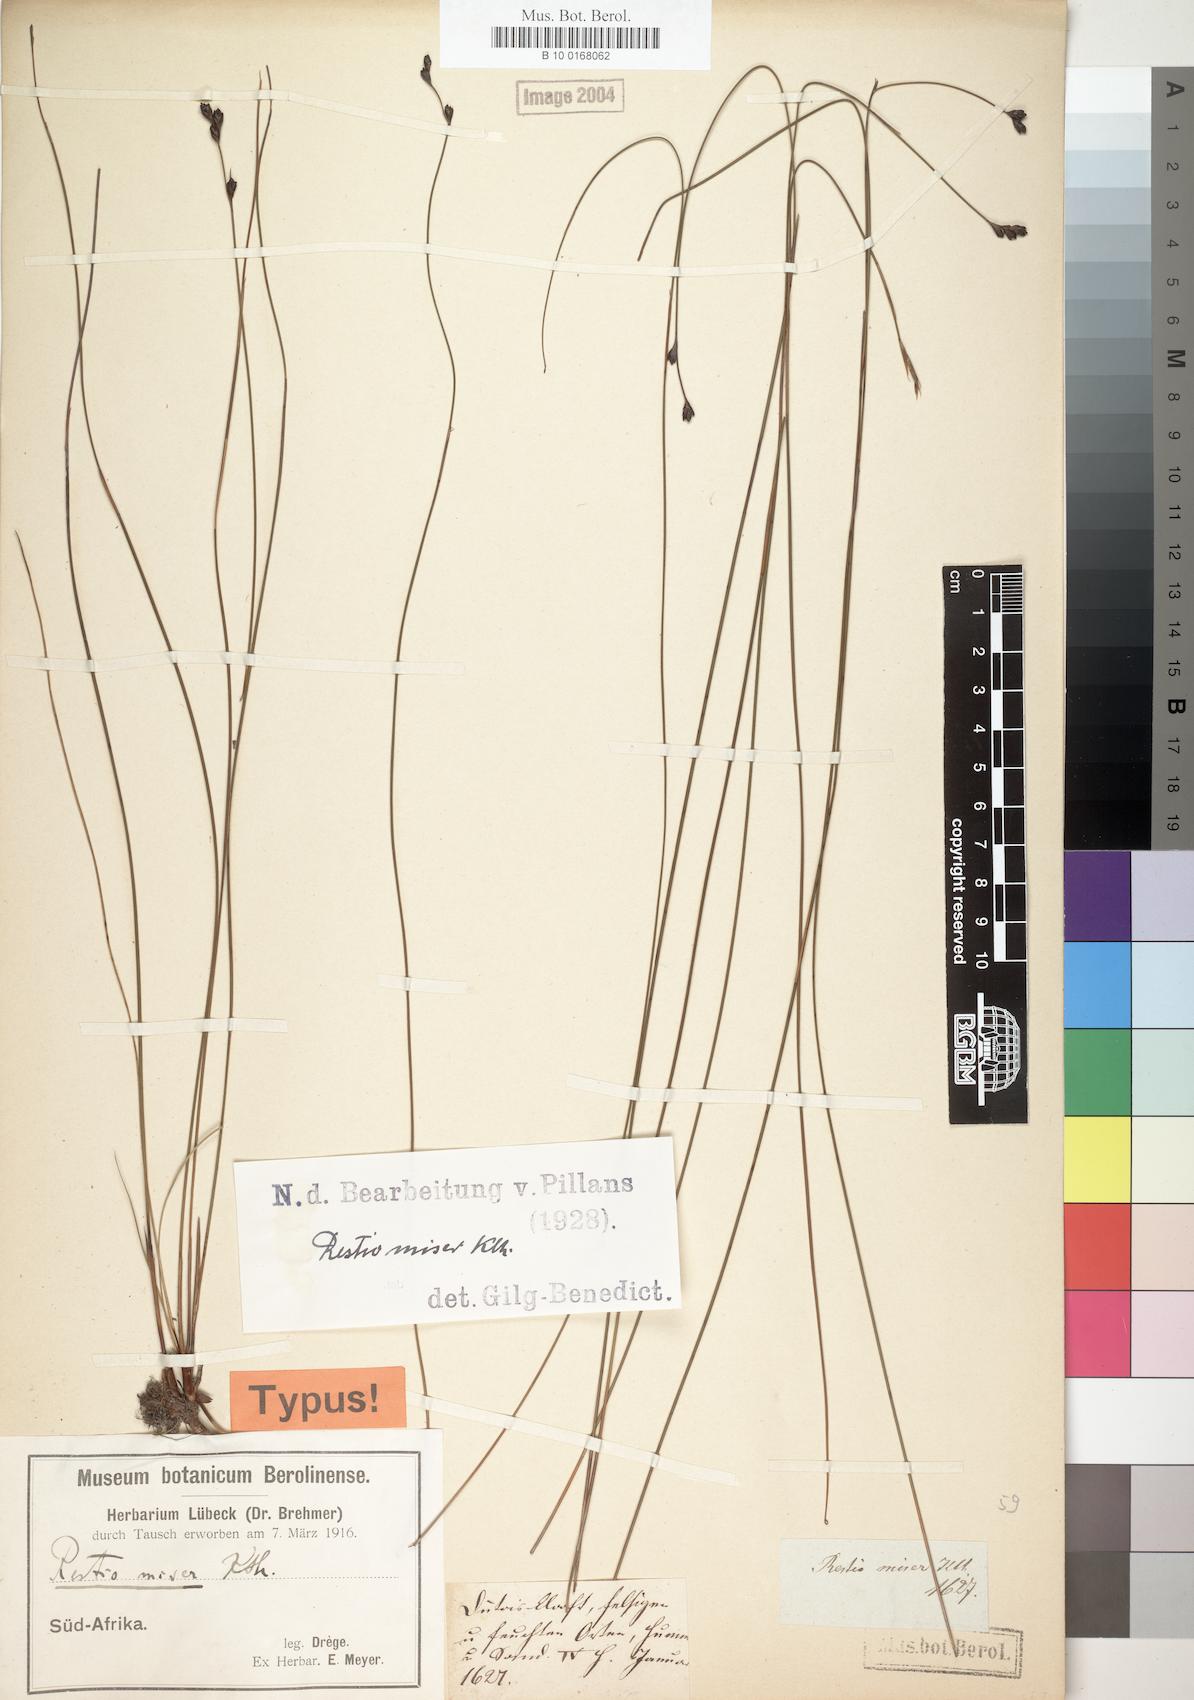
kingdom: Plantae
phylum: Tracheophyta
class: Liliopsida
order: Poales
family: Restionaceae
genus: Restio
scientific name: Restio miser
